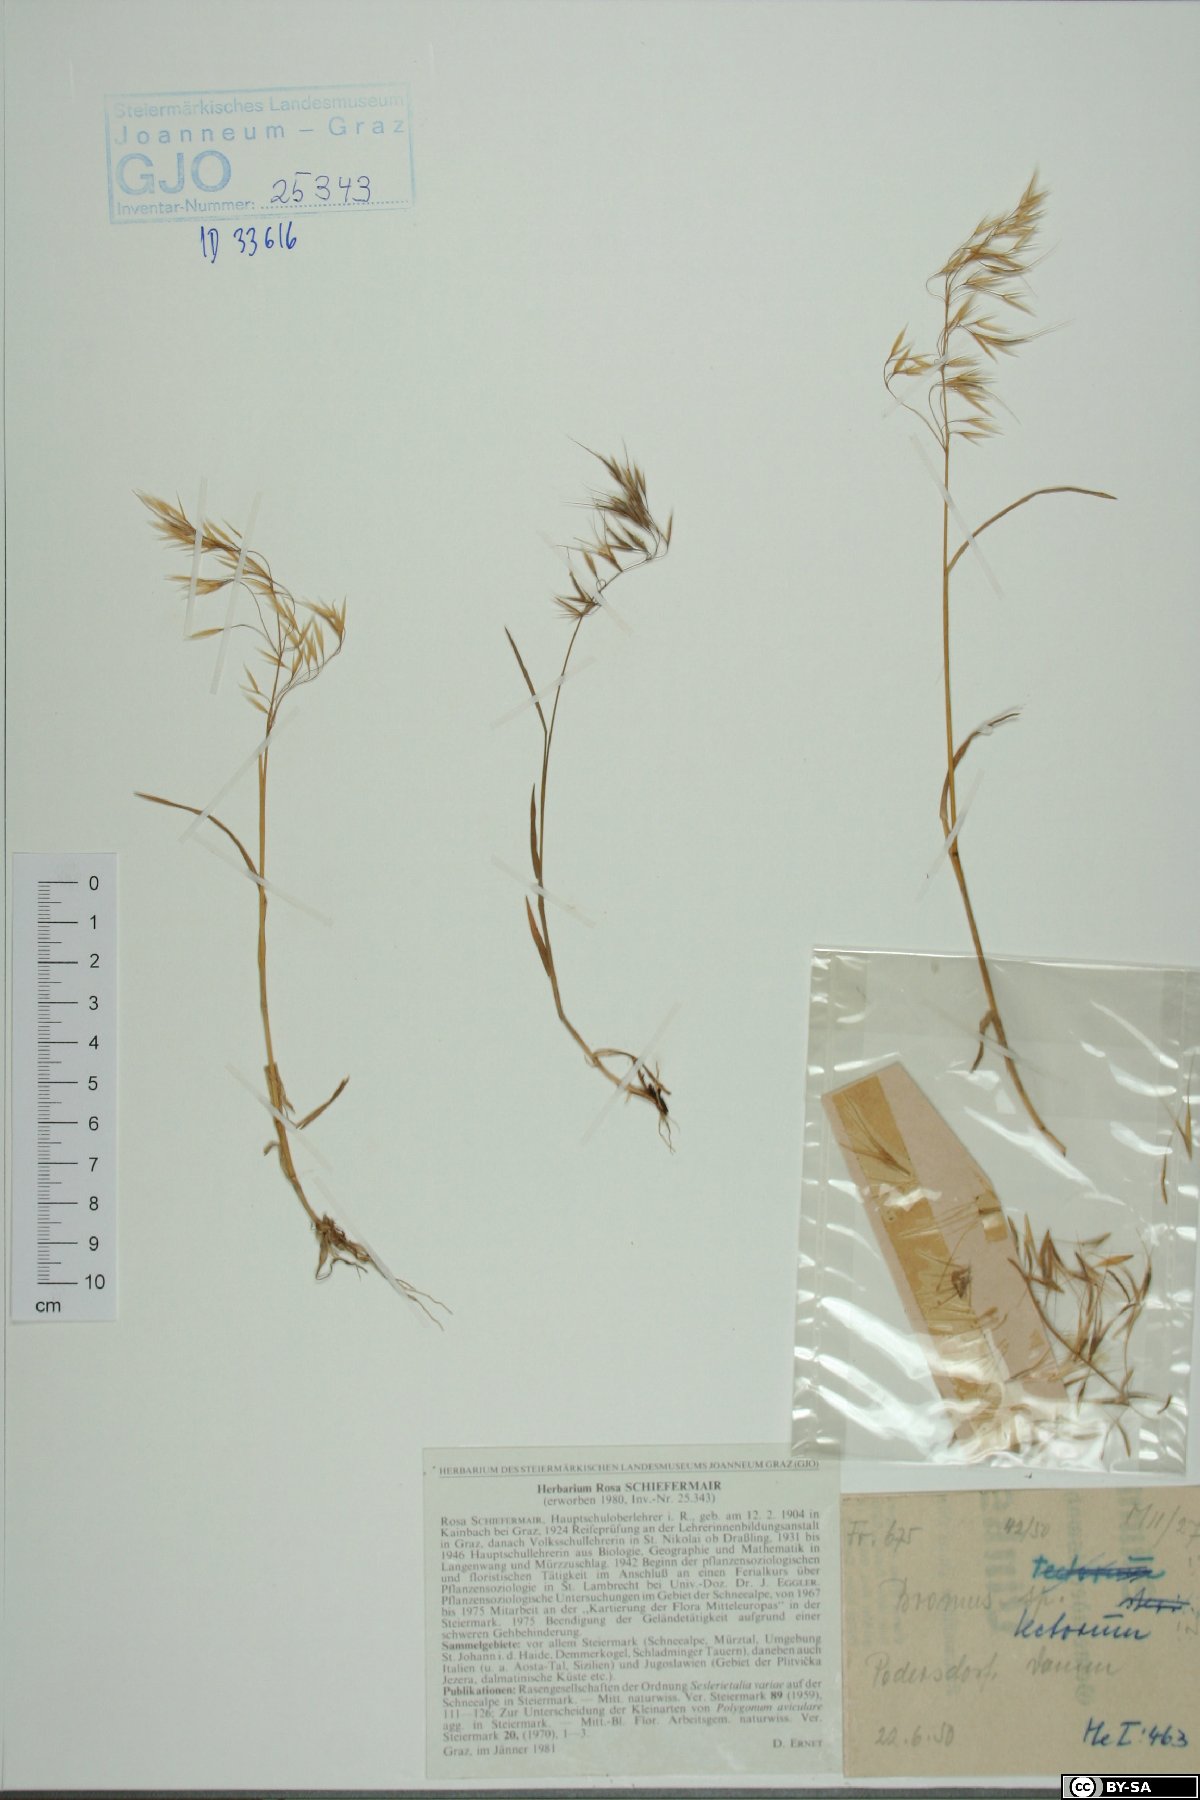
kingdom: Plantae
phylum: Tracheophyta
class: Liliopsida
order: Poales
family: Poaceae
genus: Bromus
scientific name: Bromus tectorum
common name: Cheatgrass
